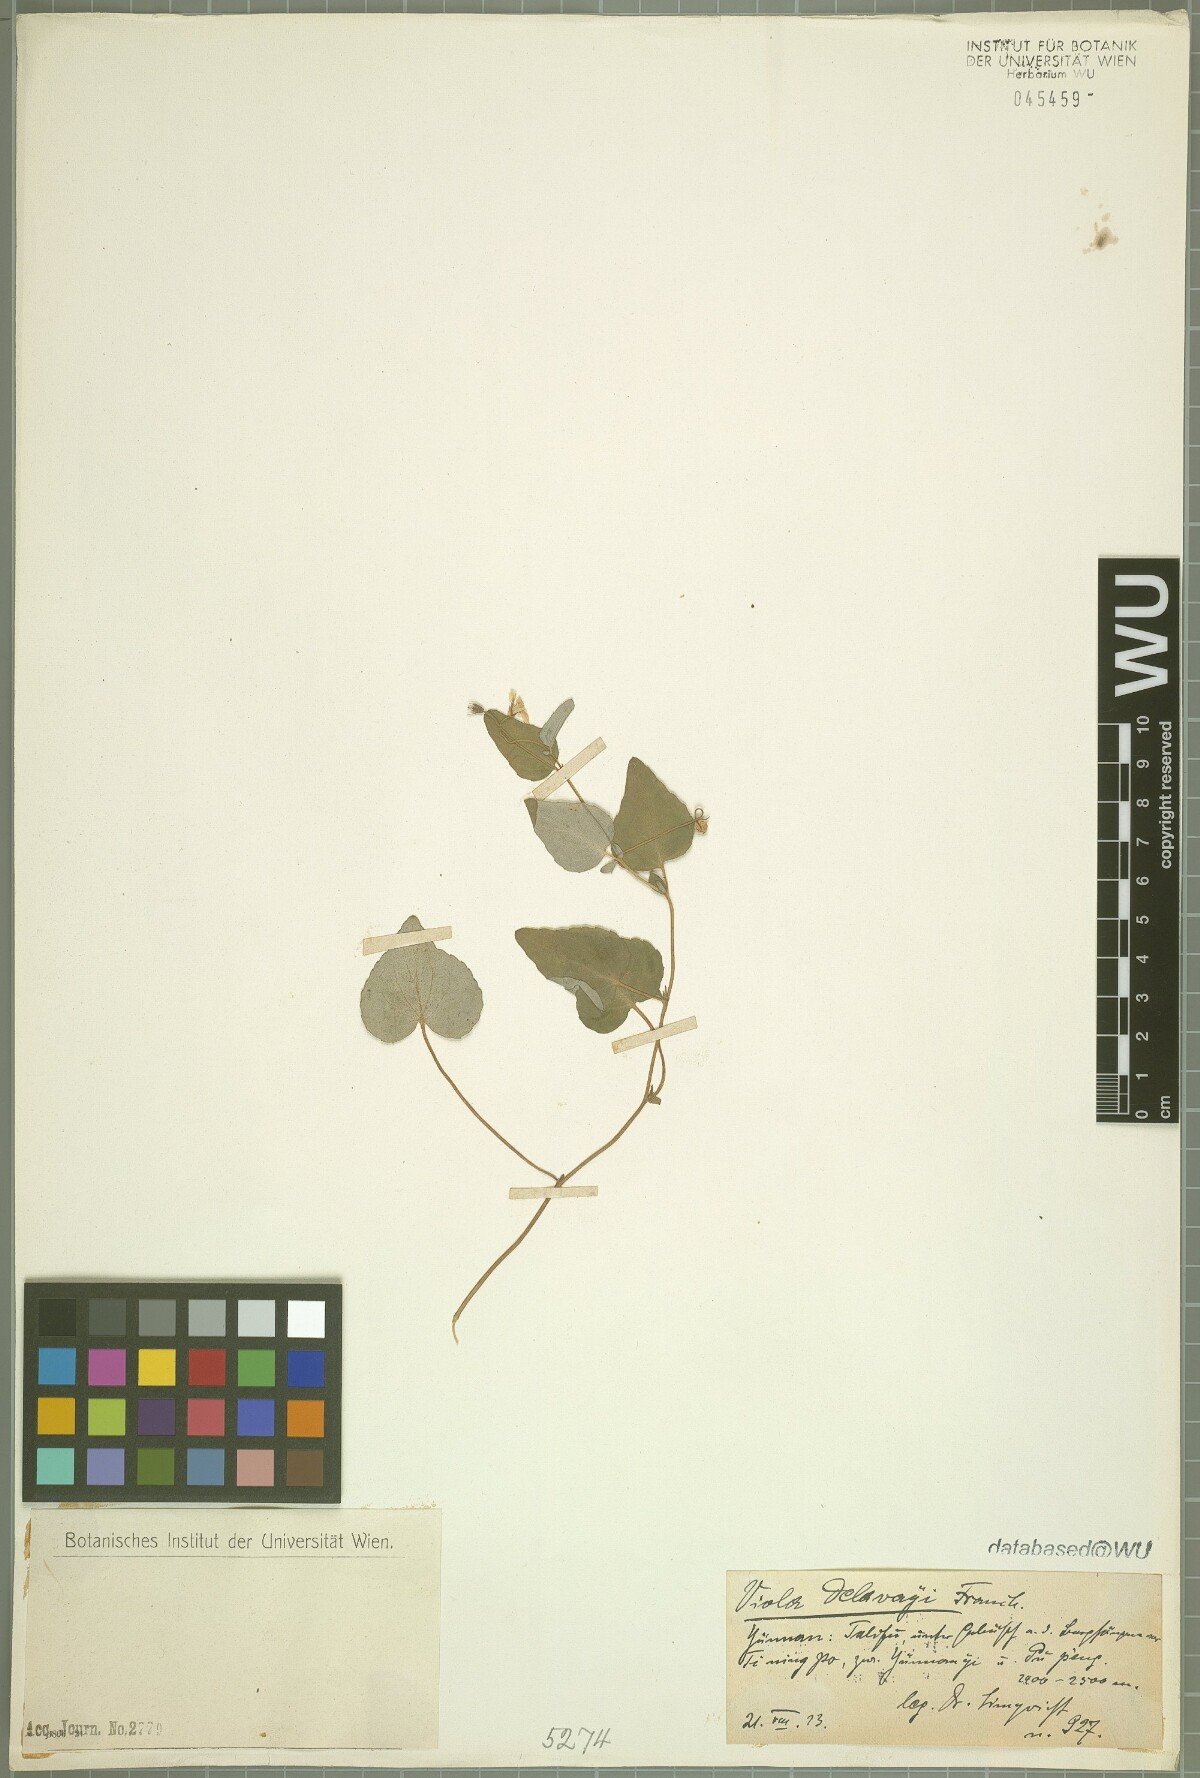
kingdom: Plantae
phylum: Tracheophyta
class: Magnoliopsida
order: Malpighiales
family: Violaceae
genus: Viola
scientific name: Viola delavayi
